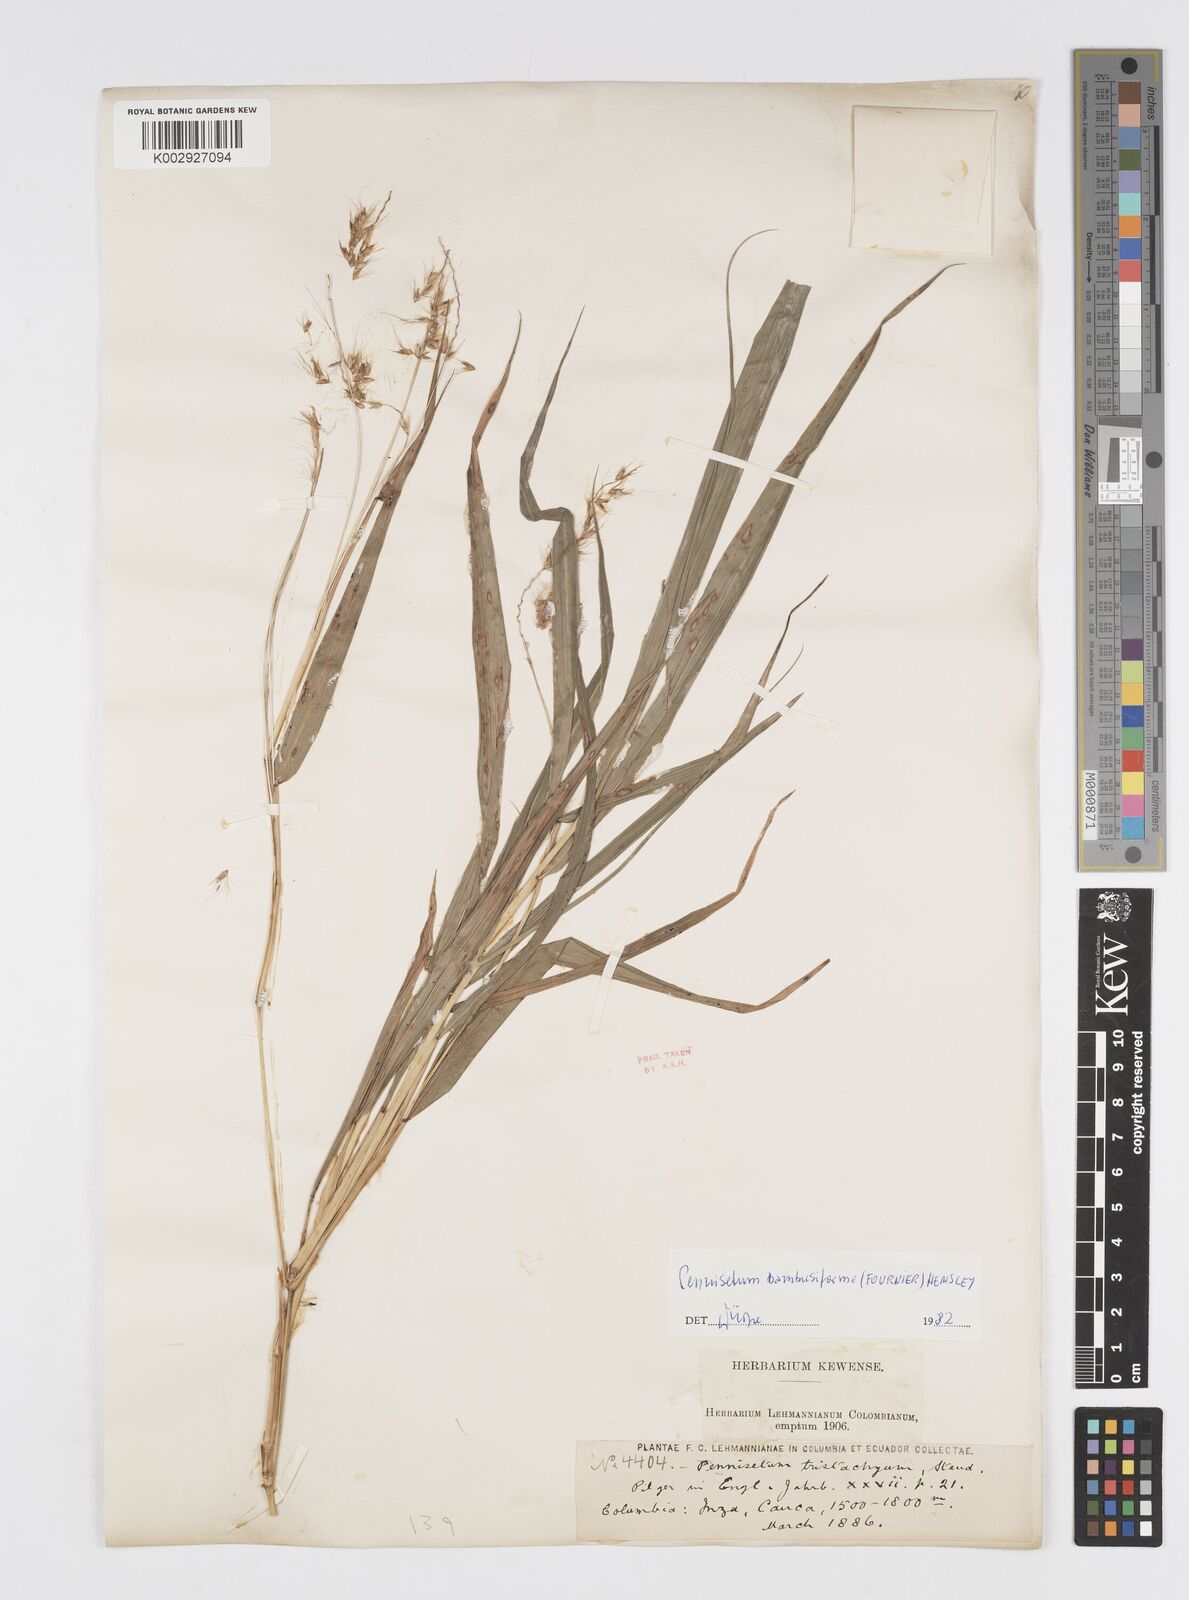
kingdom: Plantae
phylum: Tracheophyta
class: Liliopsida
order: Poales
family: Poaceae
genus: Cenchrus
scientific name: Cenchrus tristachyus
